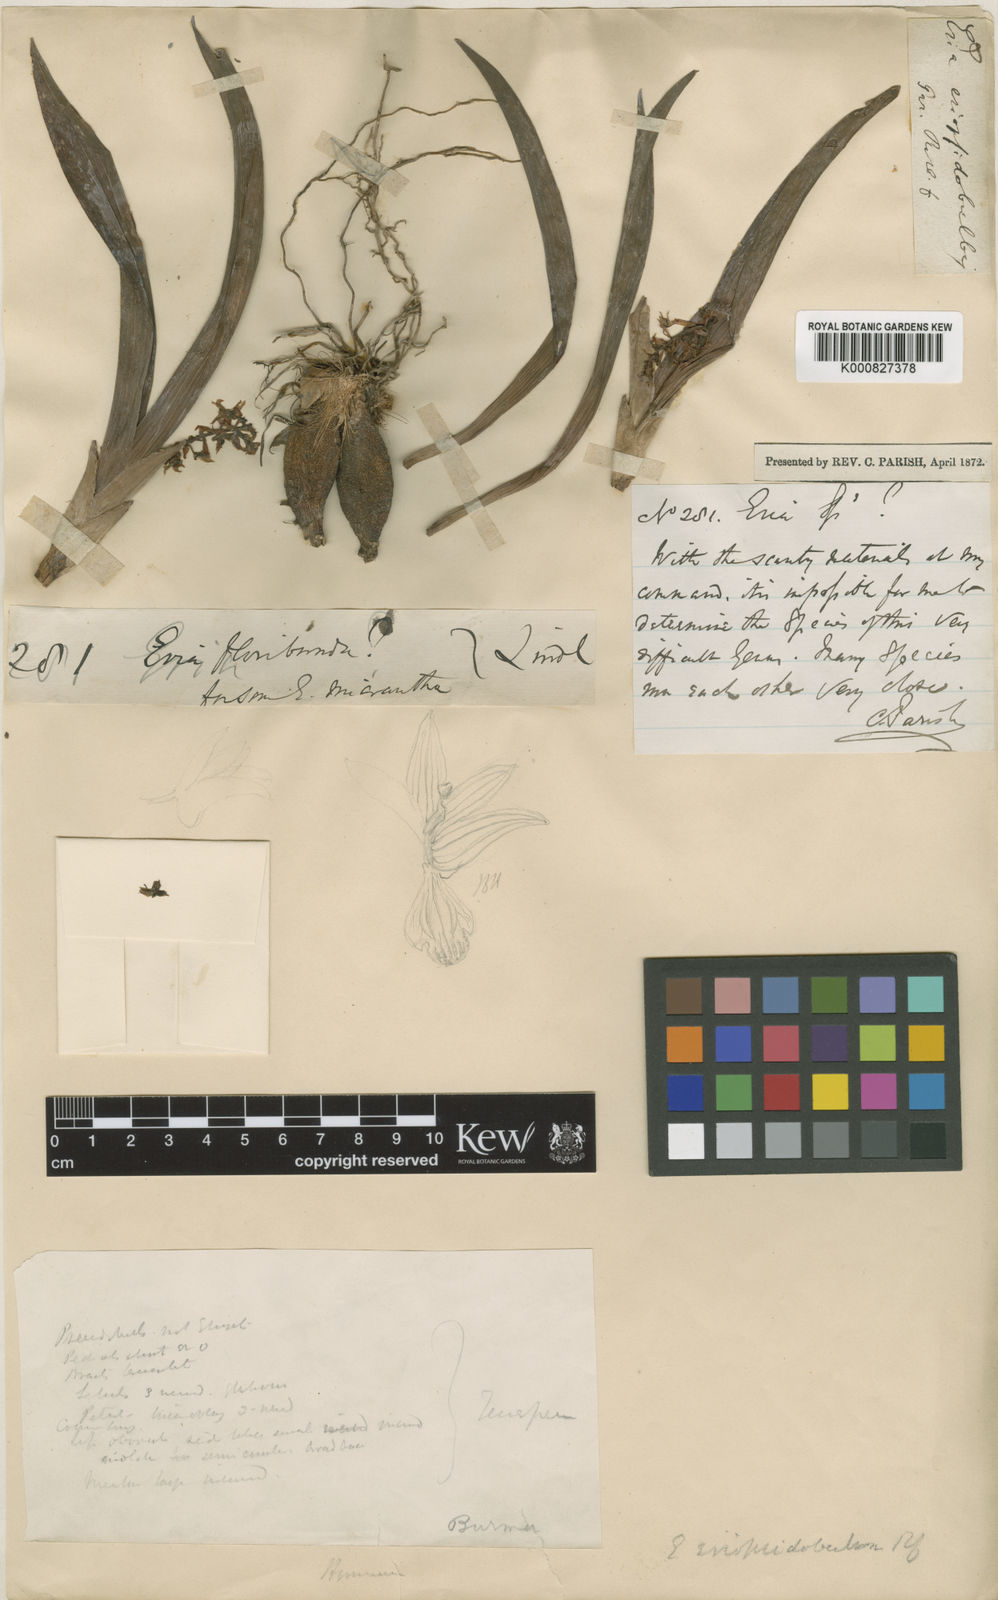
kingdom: Plantae
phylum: Tracheophyta
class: Liliopsida
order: Asparagales
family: Orchidaceae
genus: Pinalia
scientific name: Pinalia eriopsidobulbon
